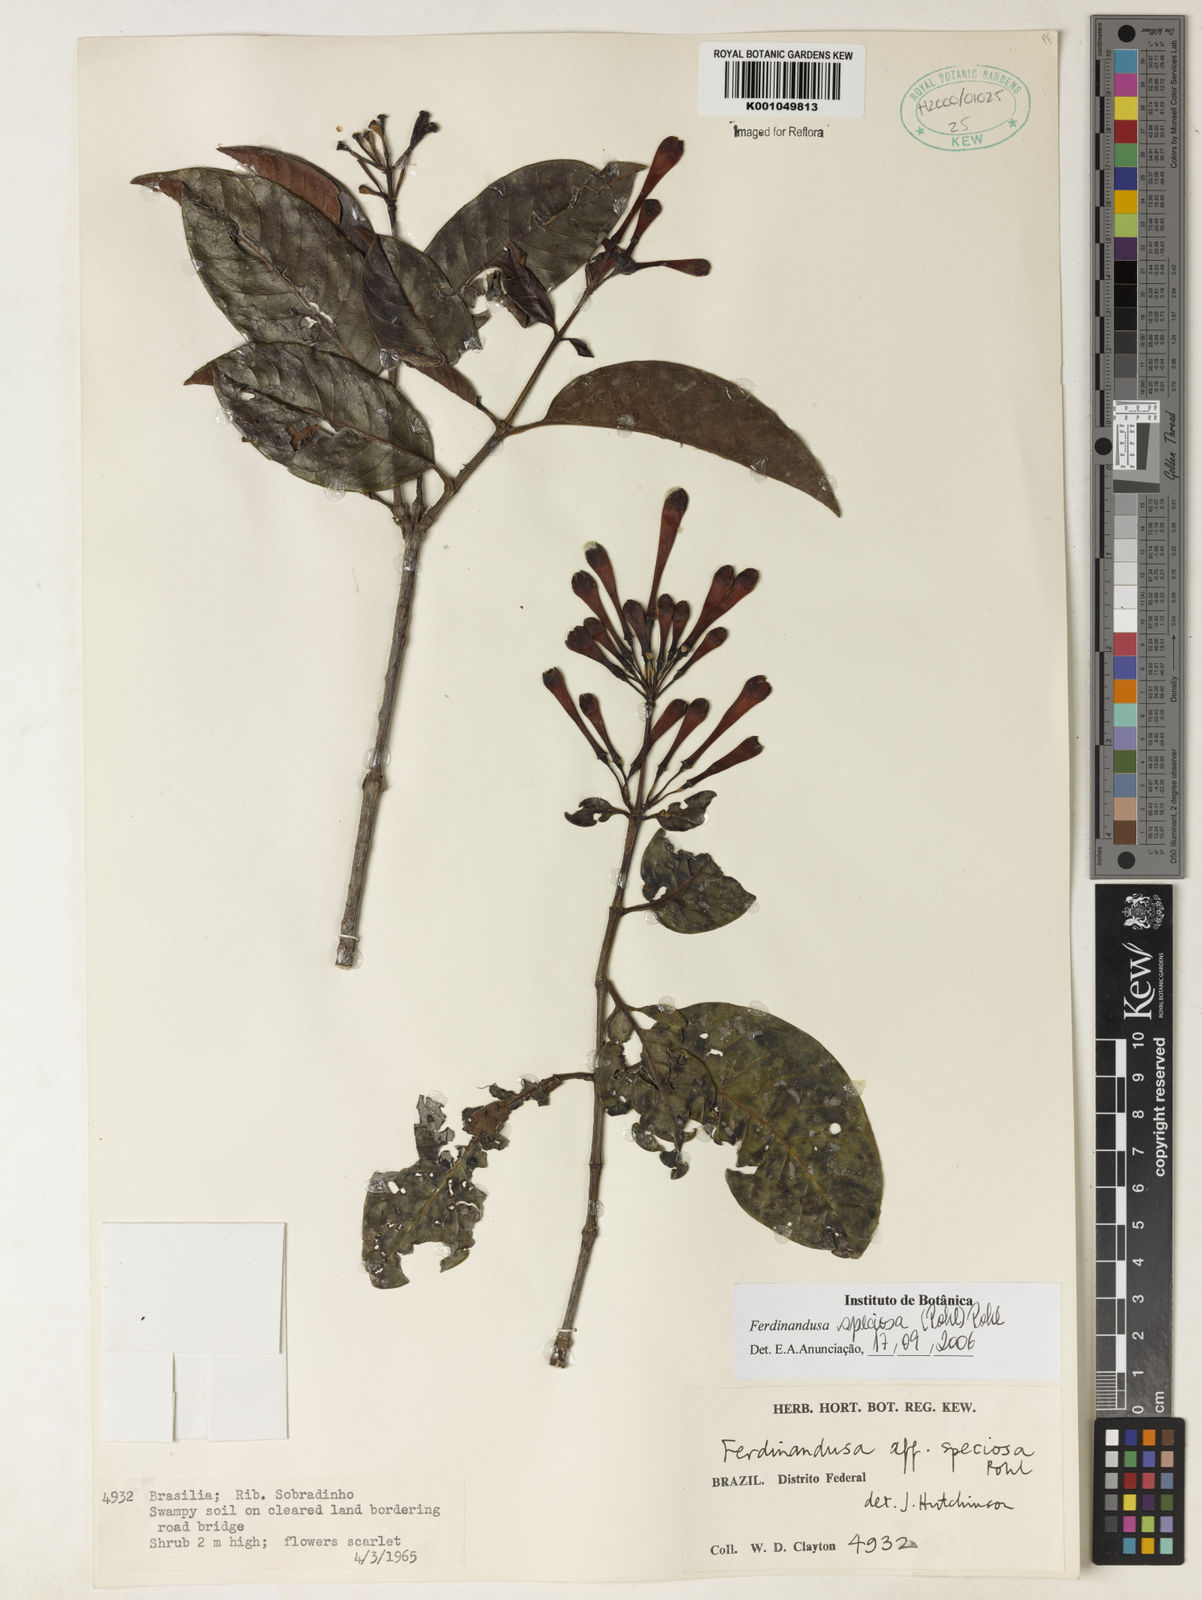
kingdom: Plantae
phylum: Tracheophyta
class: Magnoliopsida
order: Gentianales
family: Rubiaceae
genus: Ferdinandusa
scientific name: Ferdinandusa speciosa
